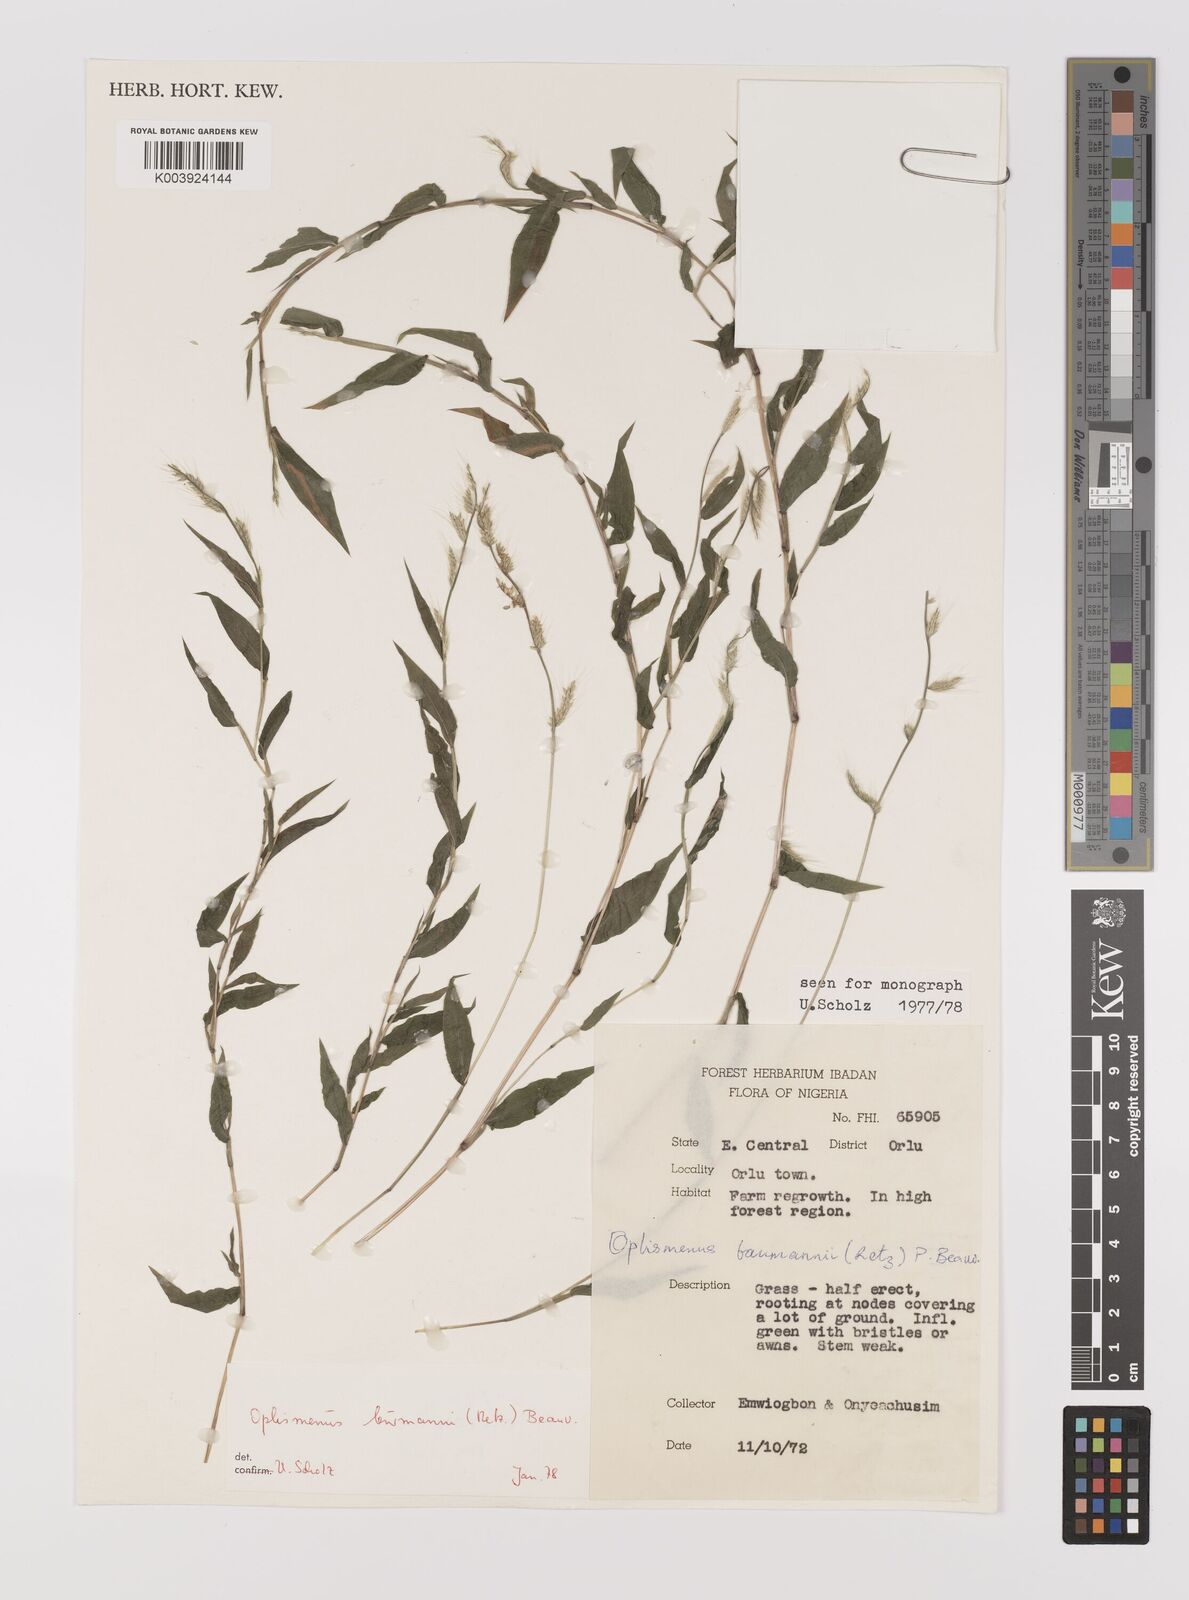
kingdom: Plantae
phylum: Tracheophyta
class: Liliopsida
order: Poales
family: Poaceae
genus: Oplismenus
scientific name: Oplismenus burmanni
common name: Burmann's basketgrass
